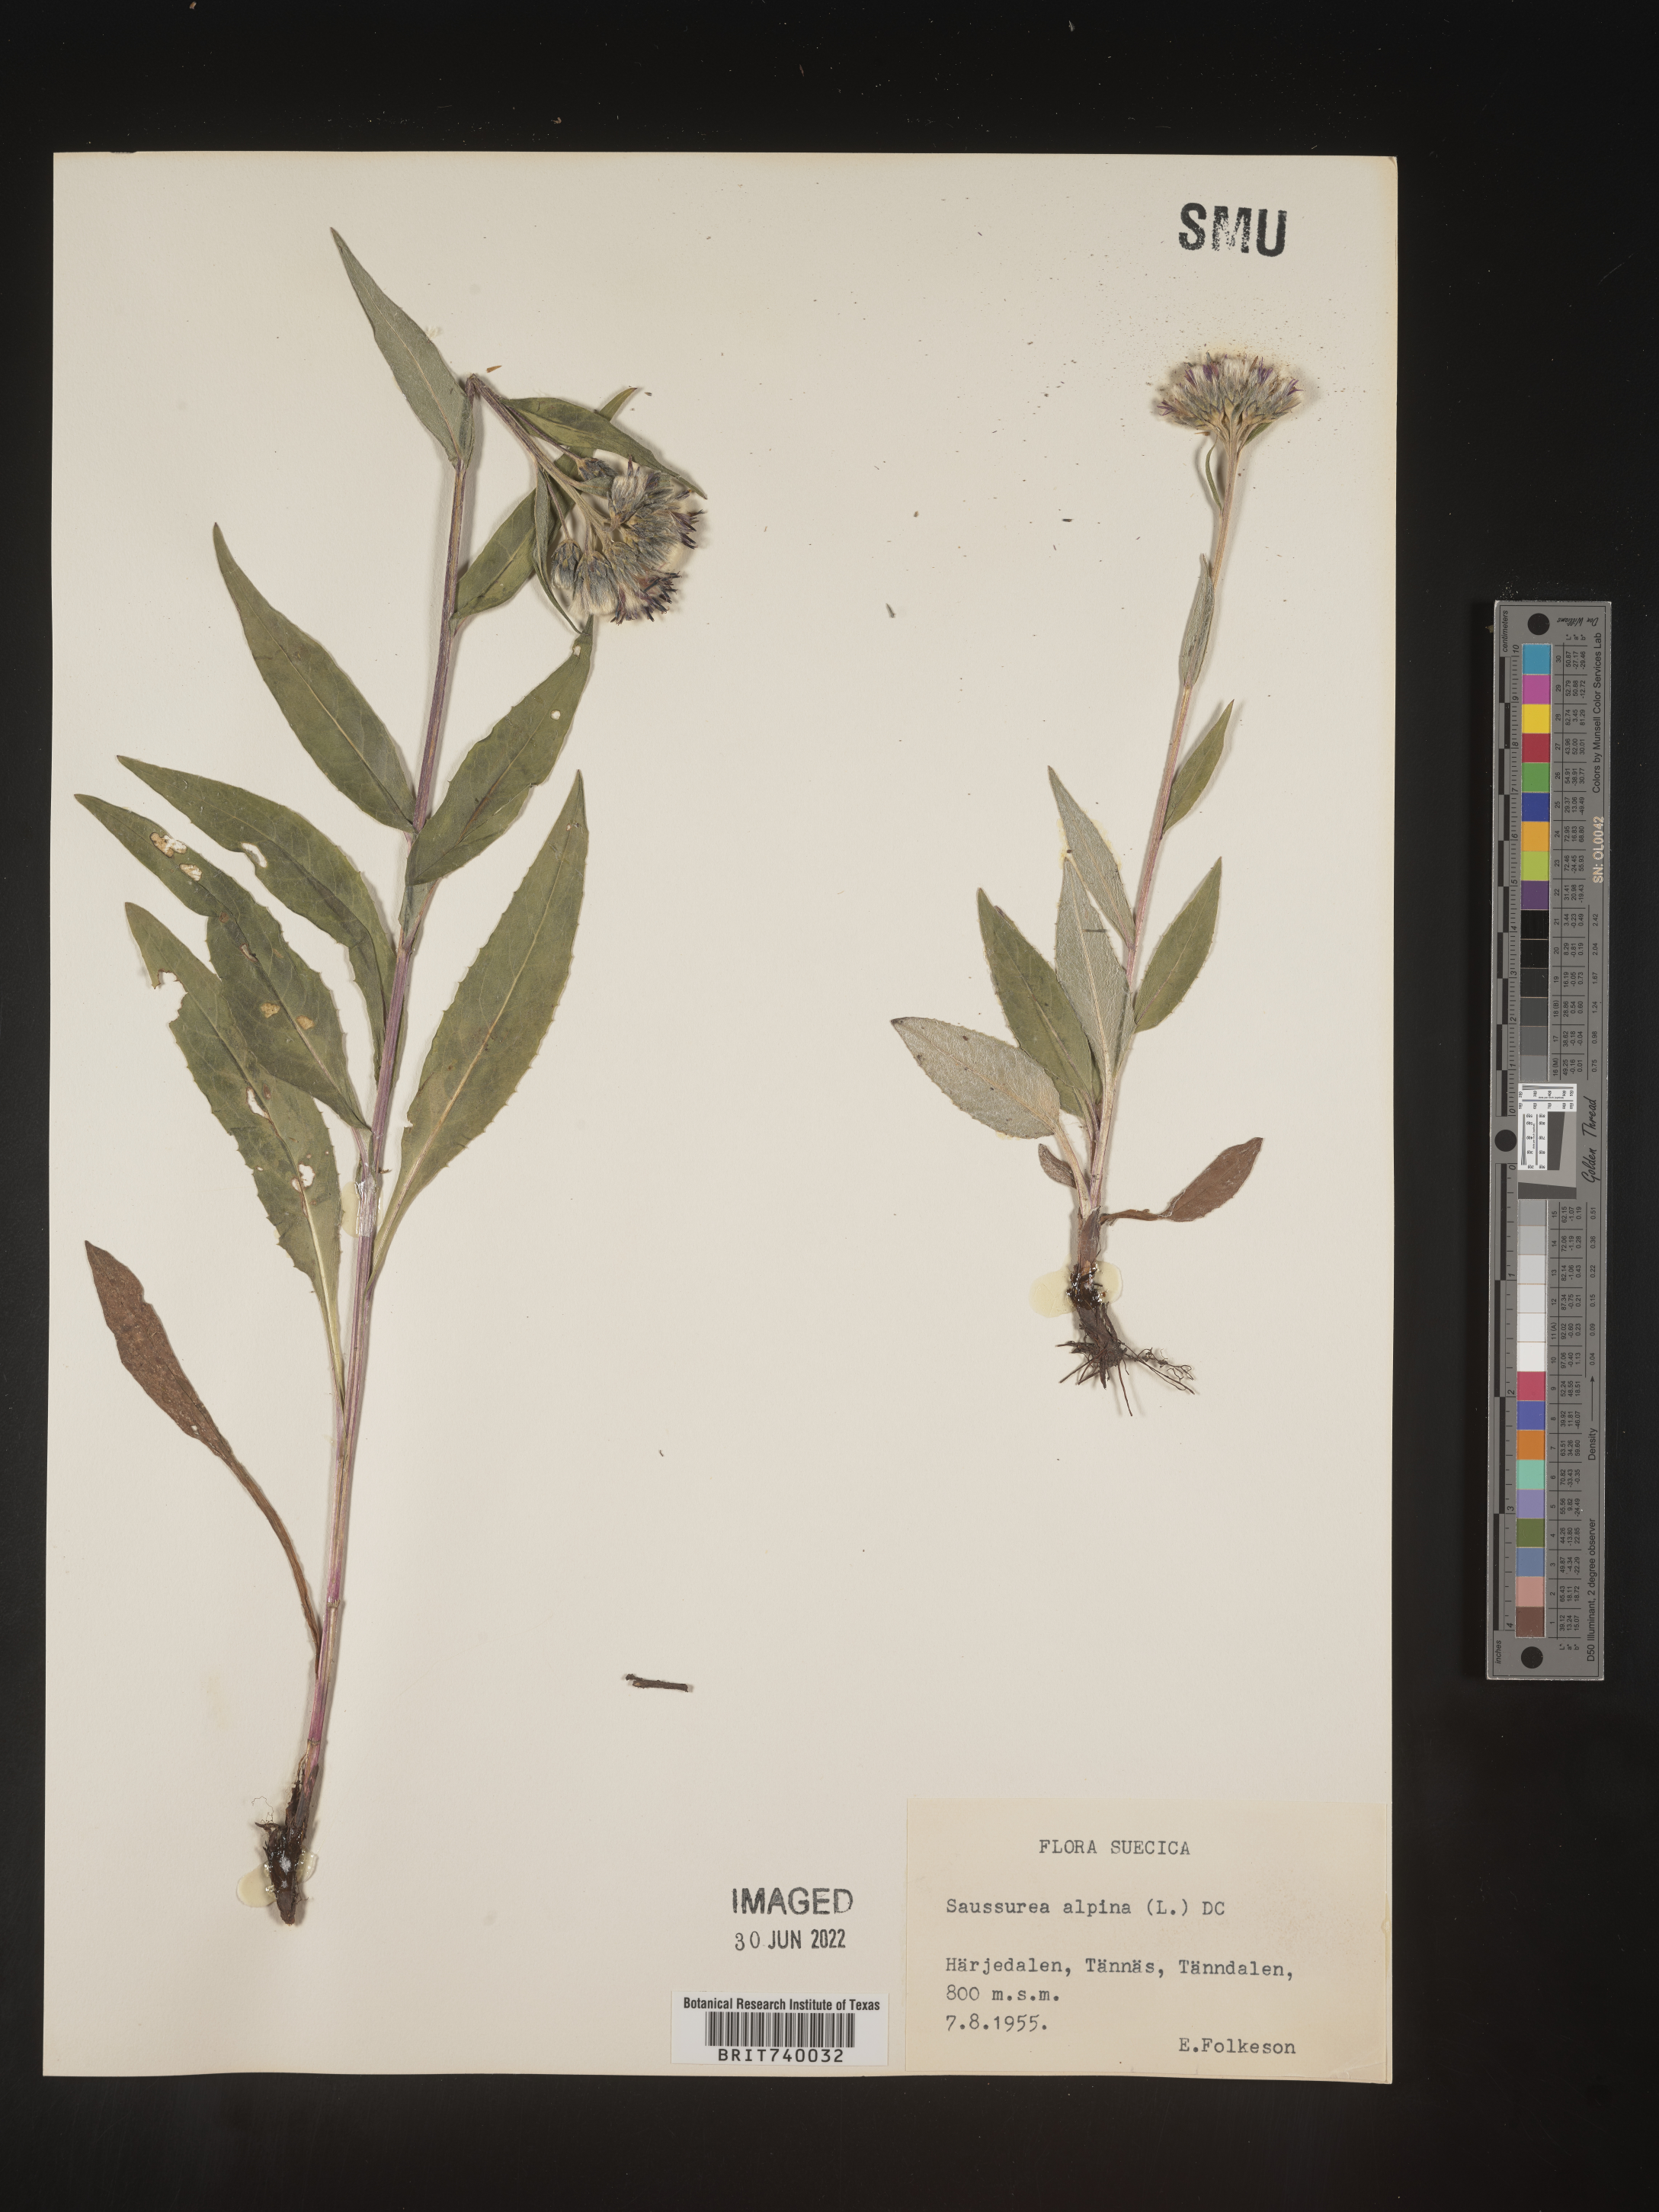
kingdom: Plantae
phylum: Tracheophyta
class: Magnoliopsida
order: Asterales
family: Asteraceae
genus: Saussurea
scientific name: Saussurea
